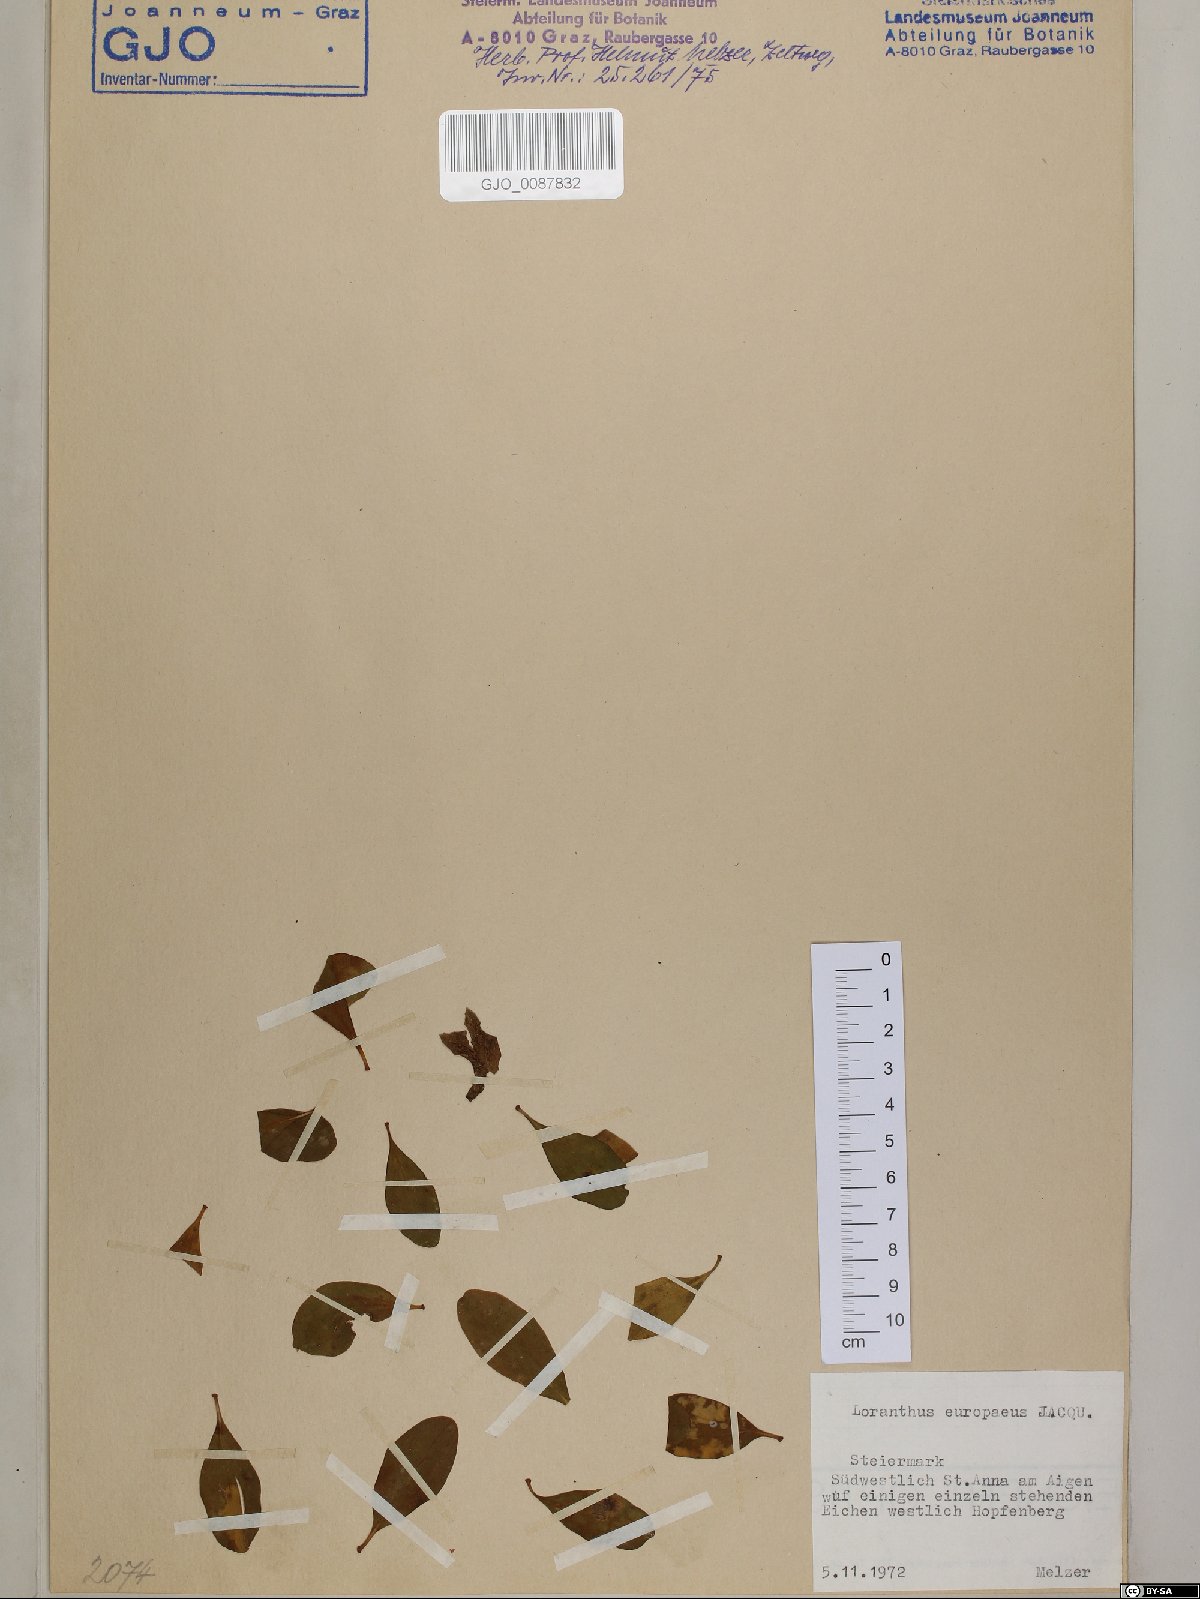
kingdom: Plantae
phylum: Tracheophyta
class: Magnoliopsida
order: Santalales
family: Loranthaceae
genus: Loranthus
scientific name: Loranthus europaeus
